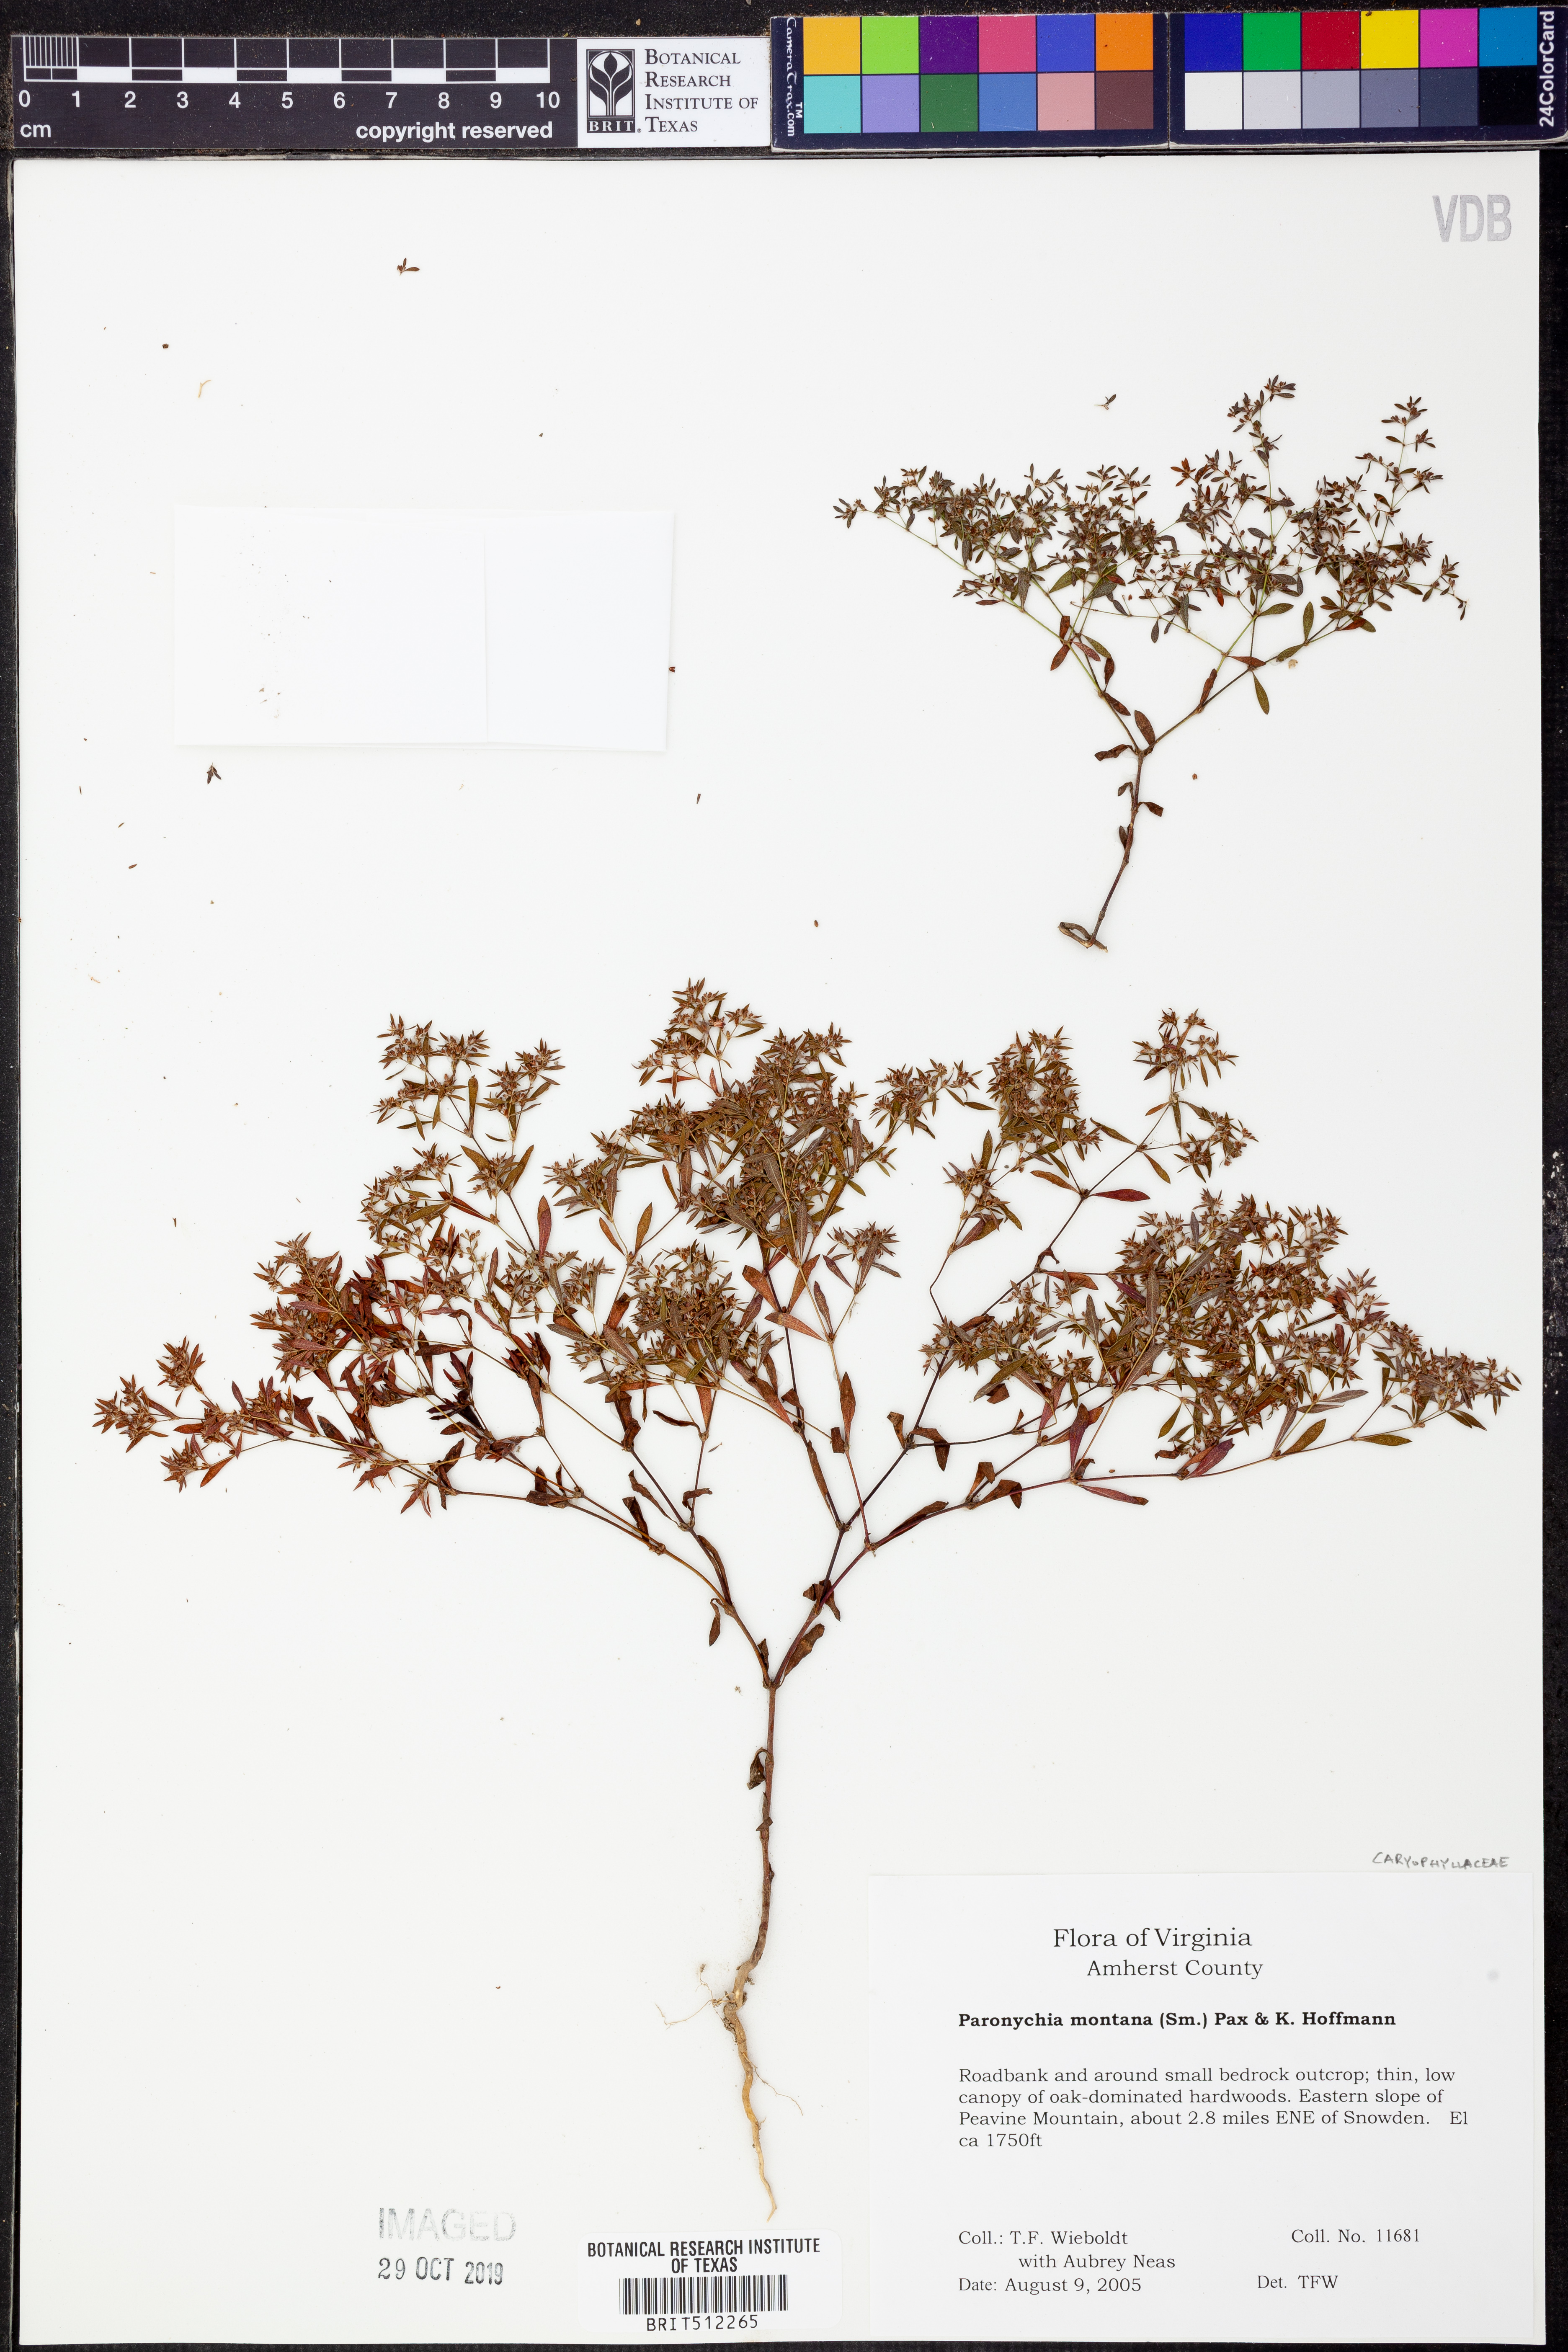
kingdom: Plantae
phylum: Tracheophyta
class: Magnoliopsida
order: Caryophyllales
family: Caryophyllaceae
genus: Paronychia
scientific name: Paronychia fastigiata
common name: Branching forked whitlow-wort
